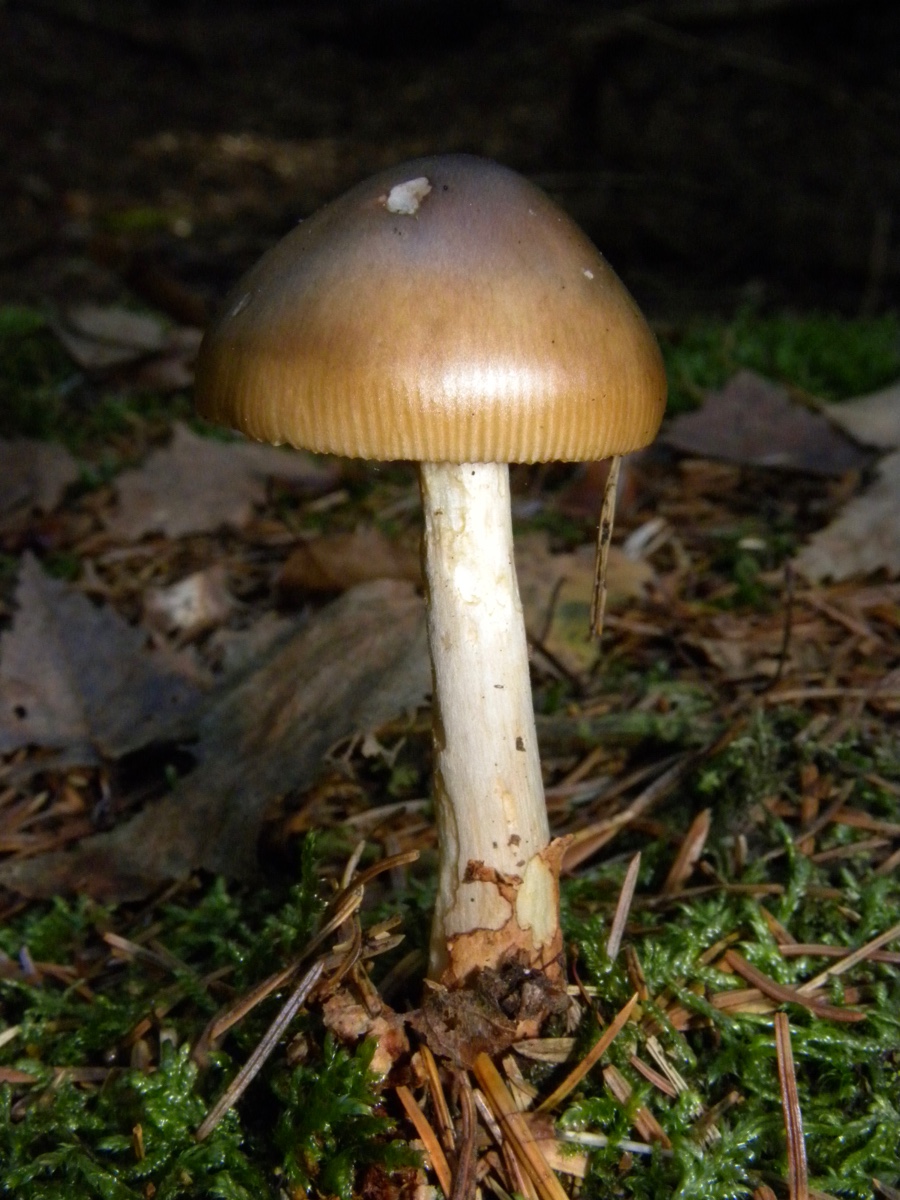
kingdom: Fungi
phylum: Basidiomycota
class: Agaricomycetes
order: Agaricales
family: Amanitaceae
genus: Amanita
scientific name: Amanita fulva
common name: brun kam-fluesvamp
